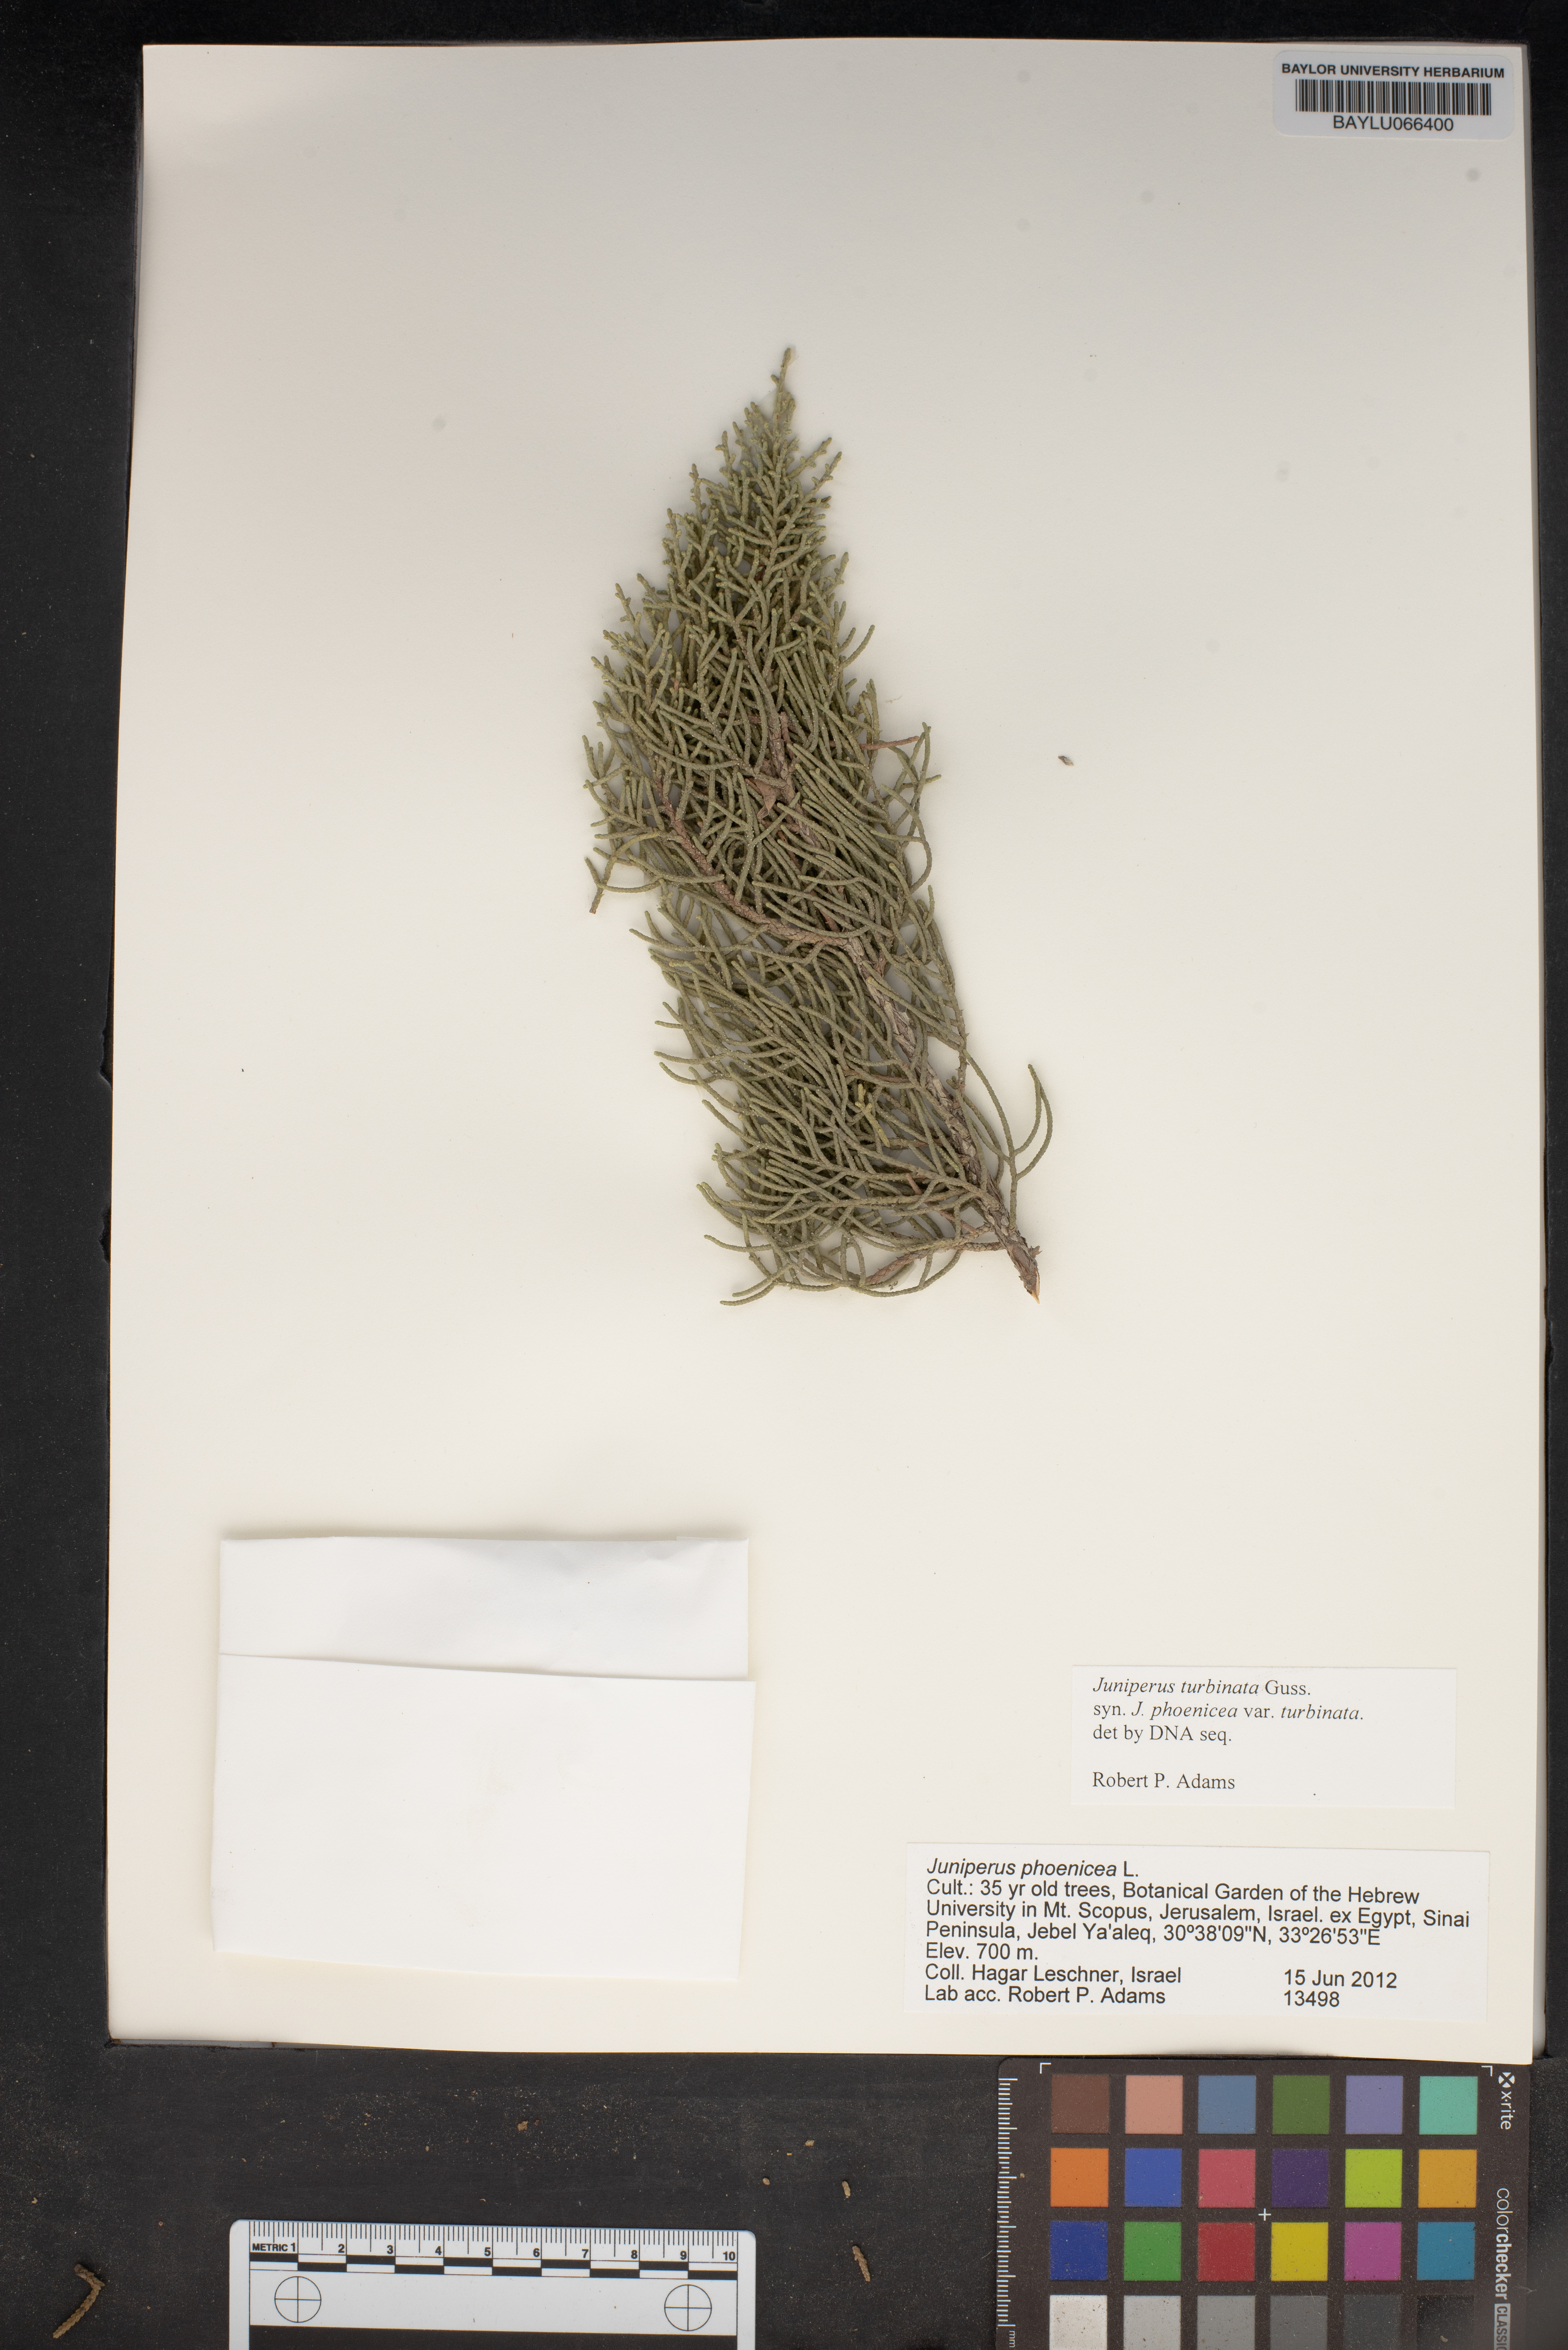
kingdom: Plantae
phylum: Tracheophyta
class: Pinopsida
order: Pinales
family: Cupressaceae
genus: Juniperus
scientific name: Juniperus phoenicea
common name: Phoenician juniper
